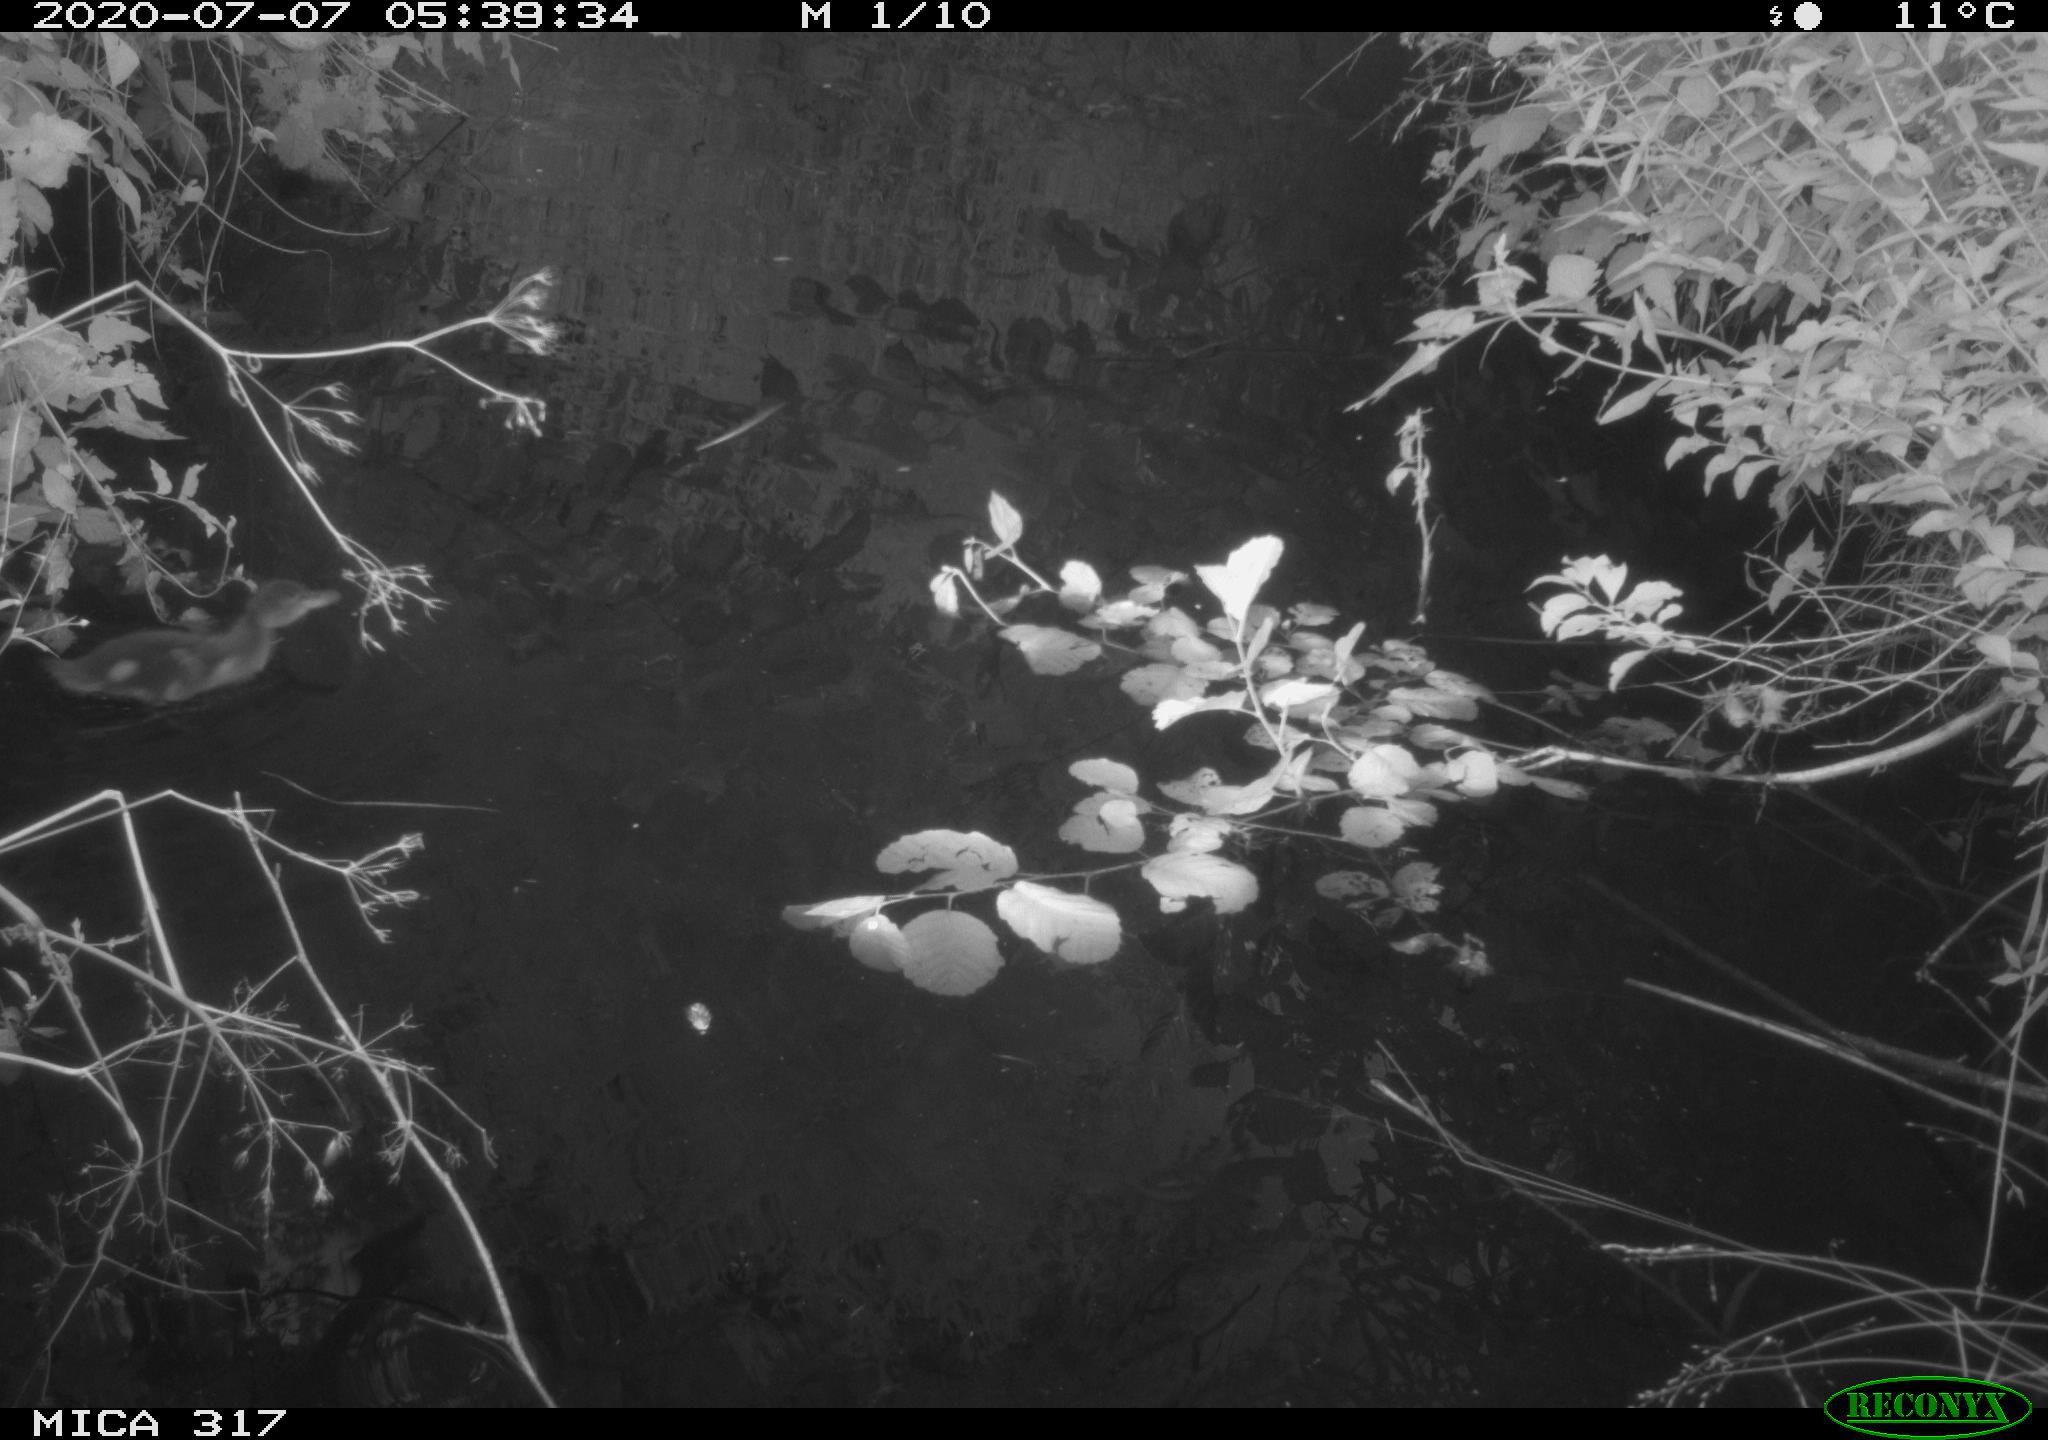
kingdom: Animalia
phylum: Chordata
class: Aves
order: Anseriformes
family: Anatidae
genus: Anas
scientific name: Anas platyrhynchos
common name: Mallard
